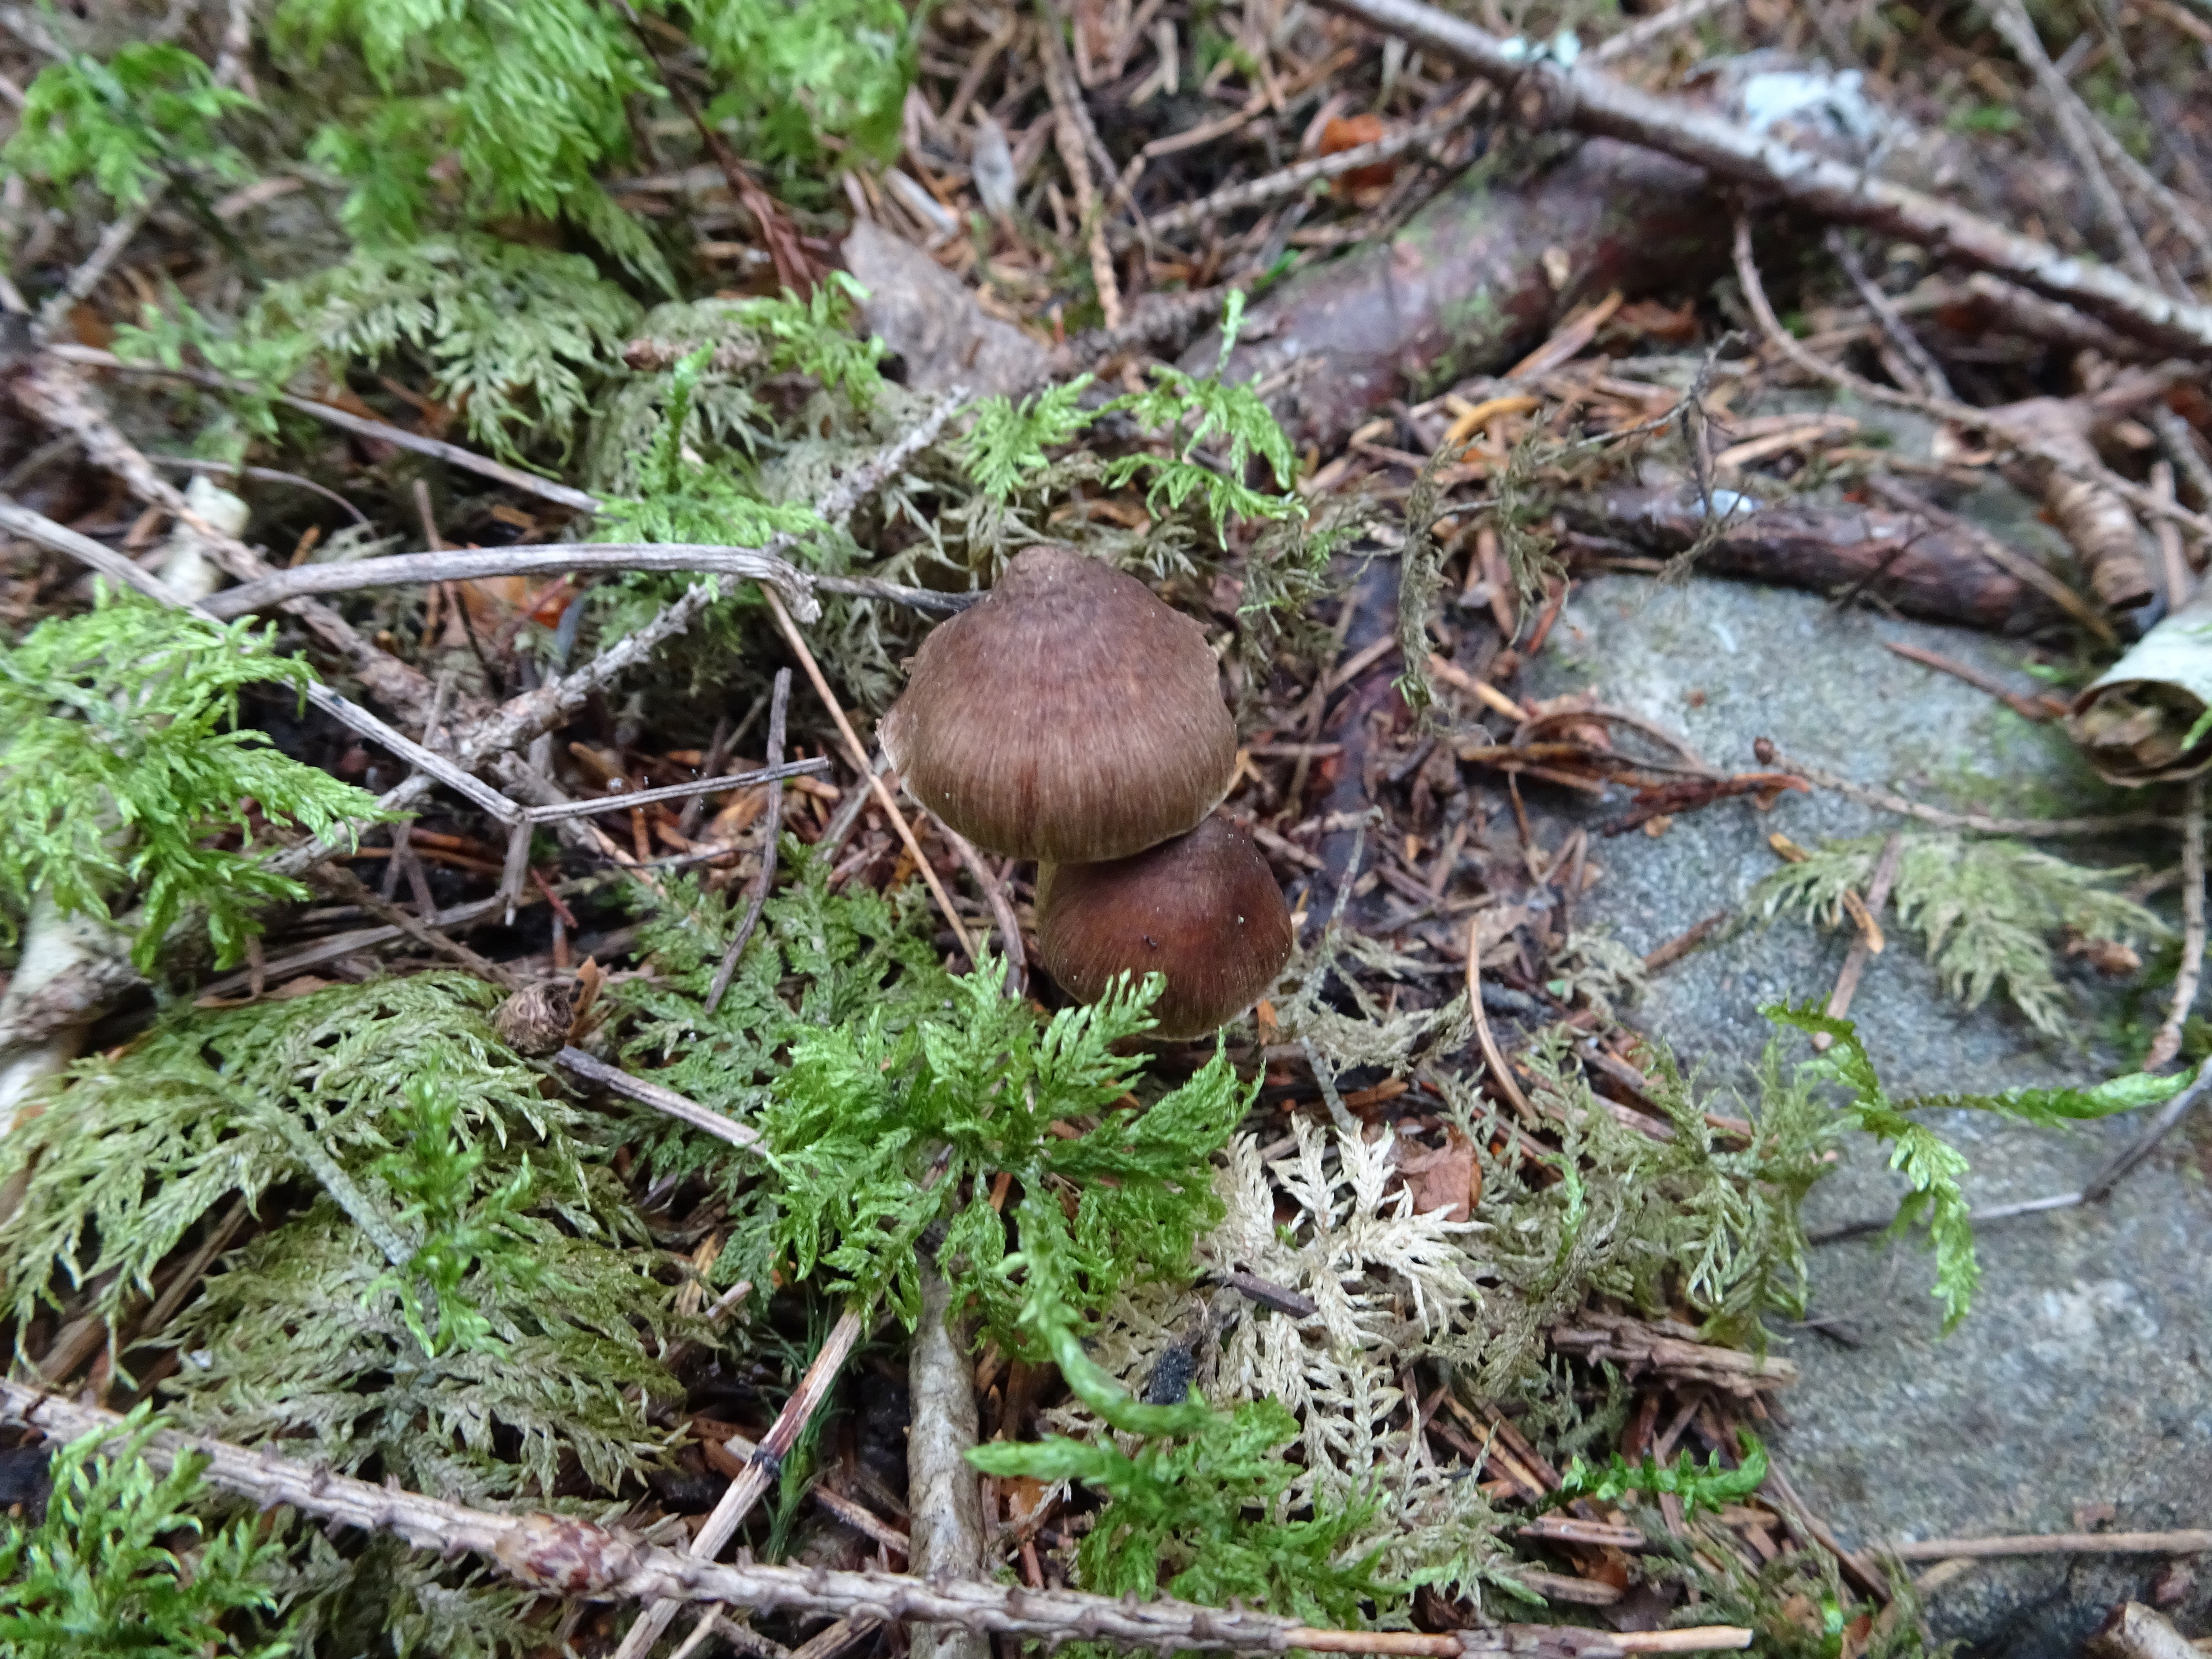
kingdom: Fungi
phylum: Basidiomycota
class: Agaricomycetes
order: Agaricales
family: Inocybaceae
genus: Inocybe
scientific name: Inocybe
